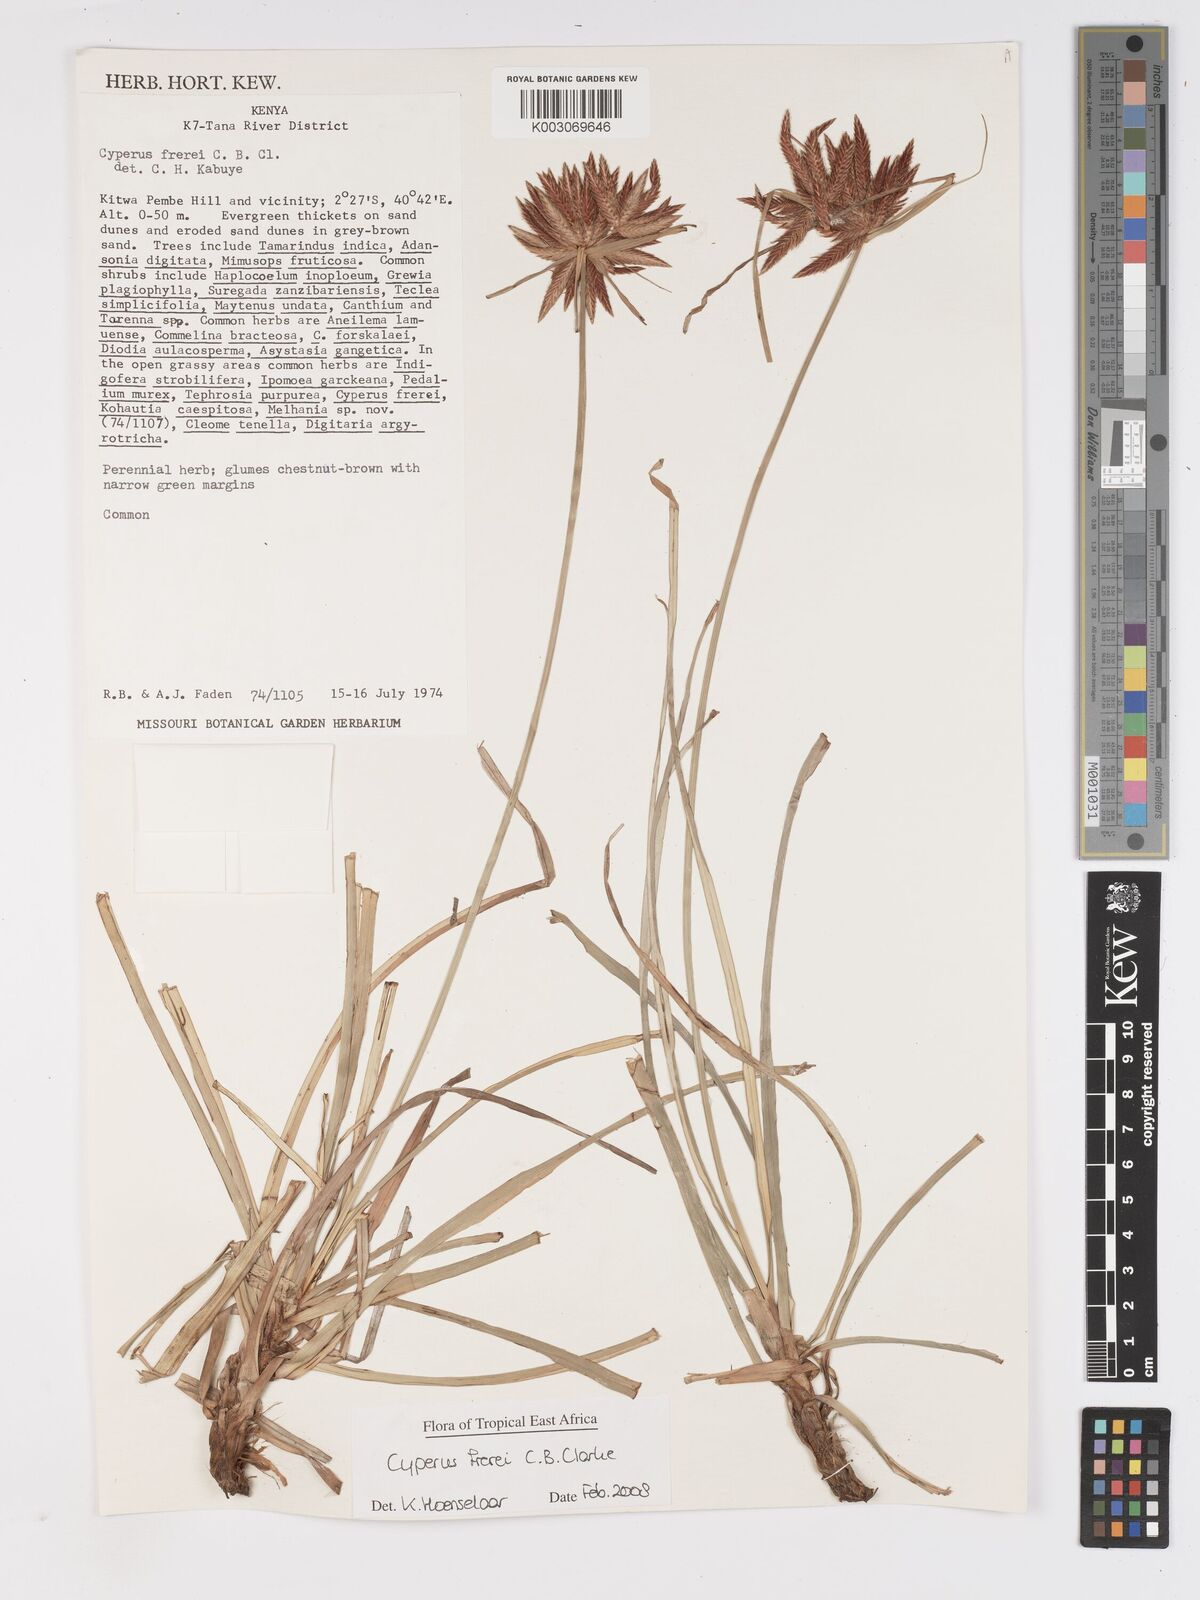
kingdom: Plantae
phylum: Tracheophyta
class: Liliopsida
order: Poales
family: Cyperaceae
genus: Cyperus
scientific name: Cyperus crassipes
